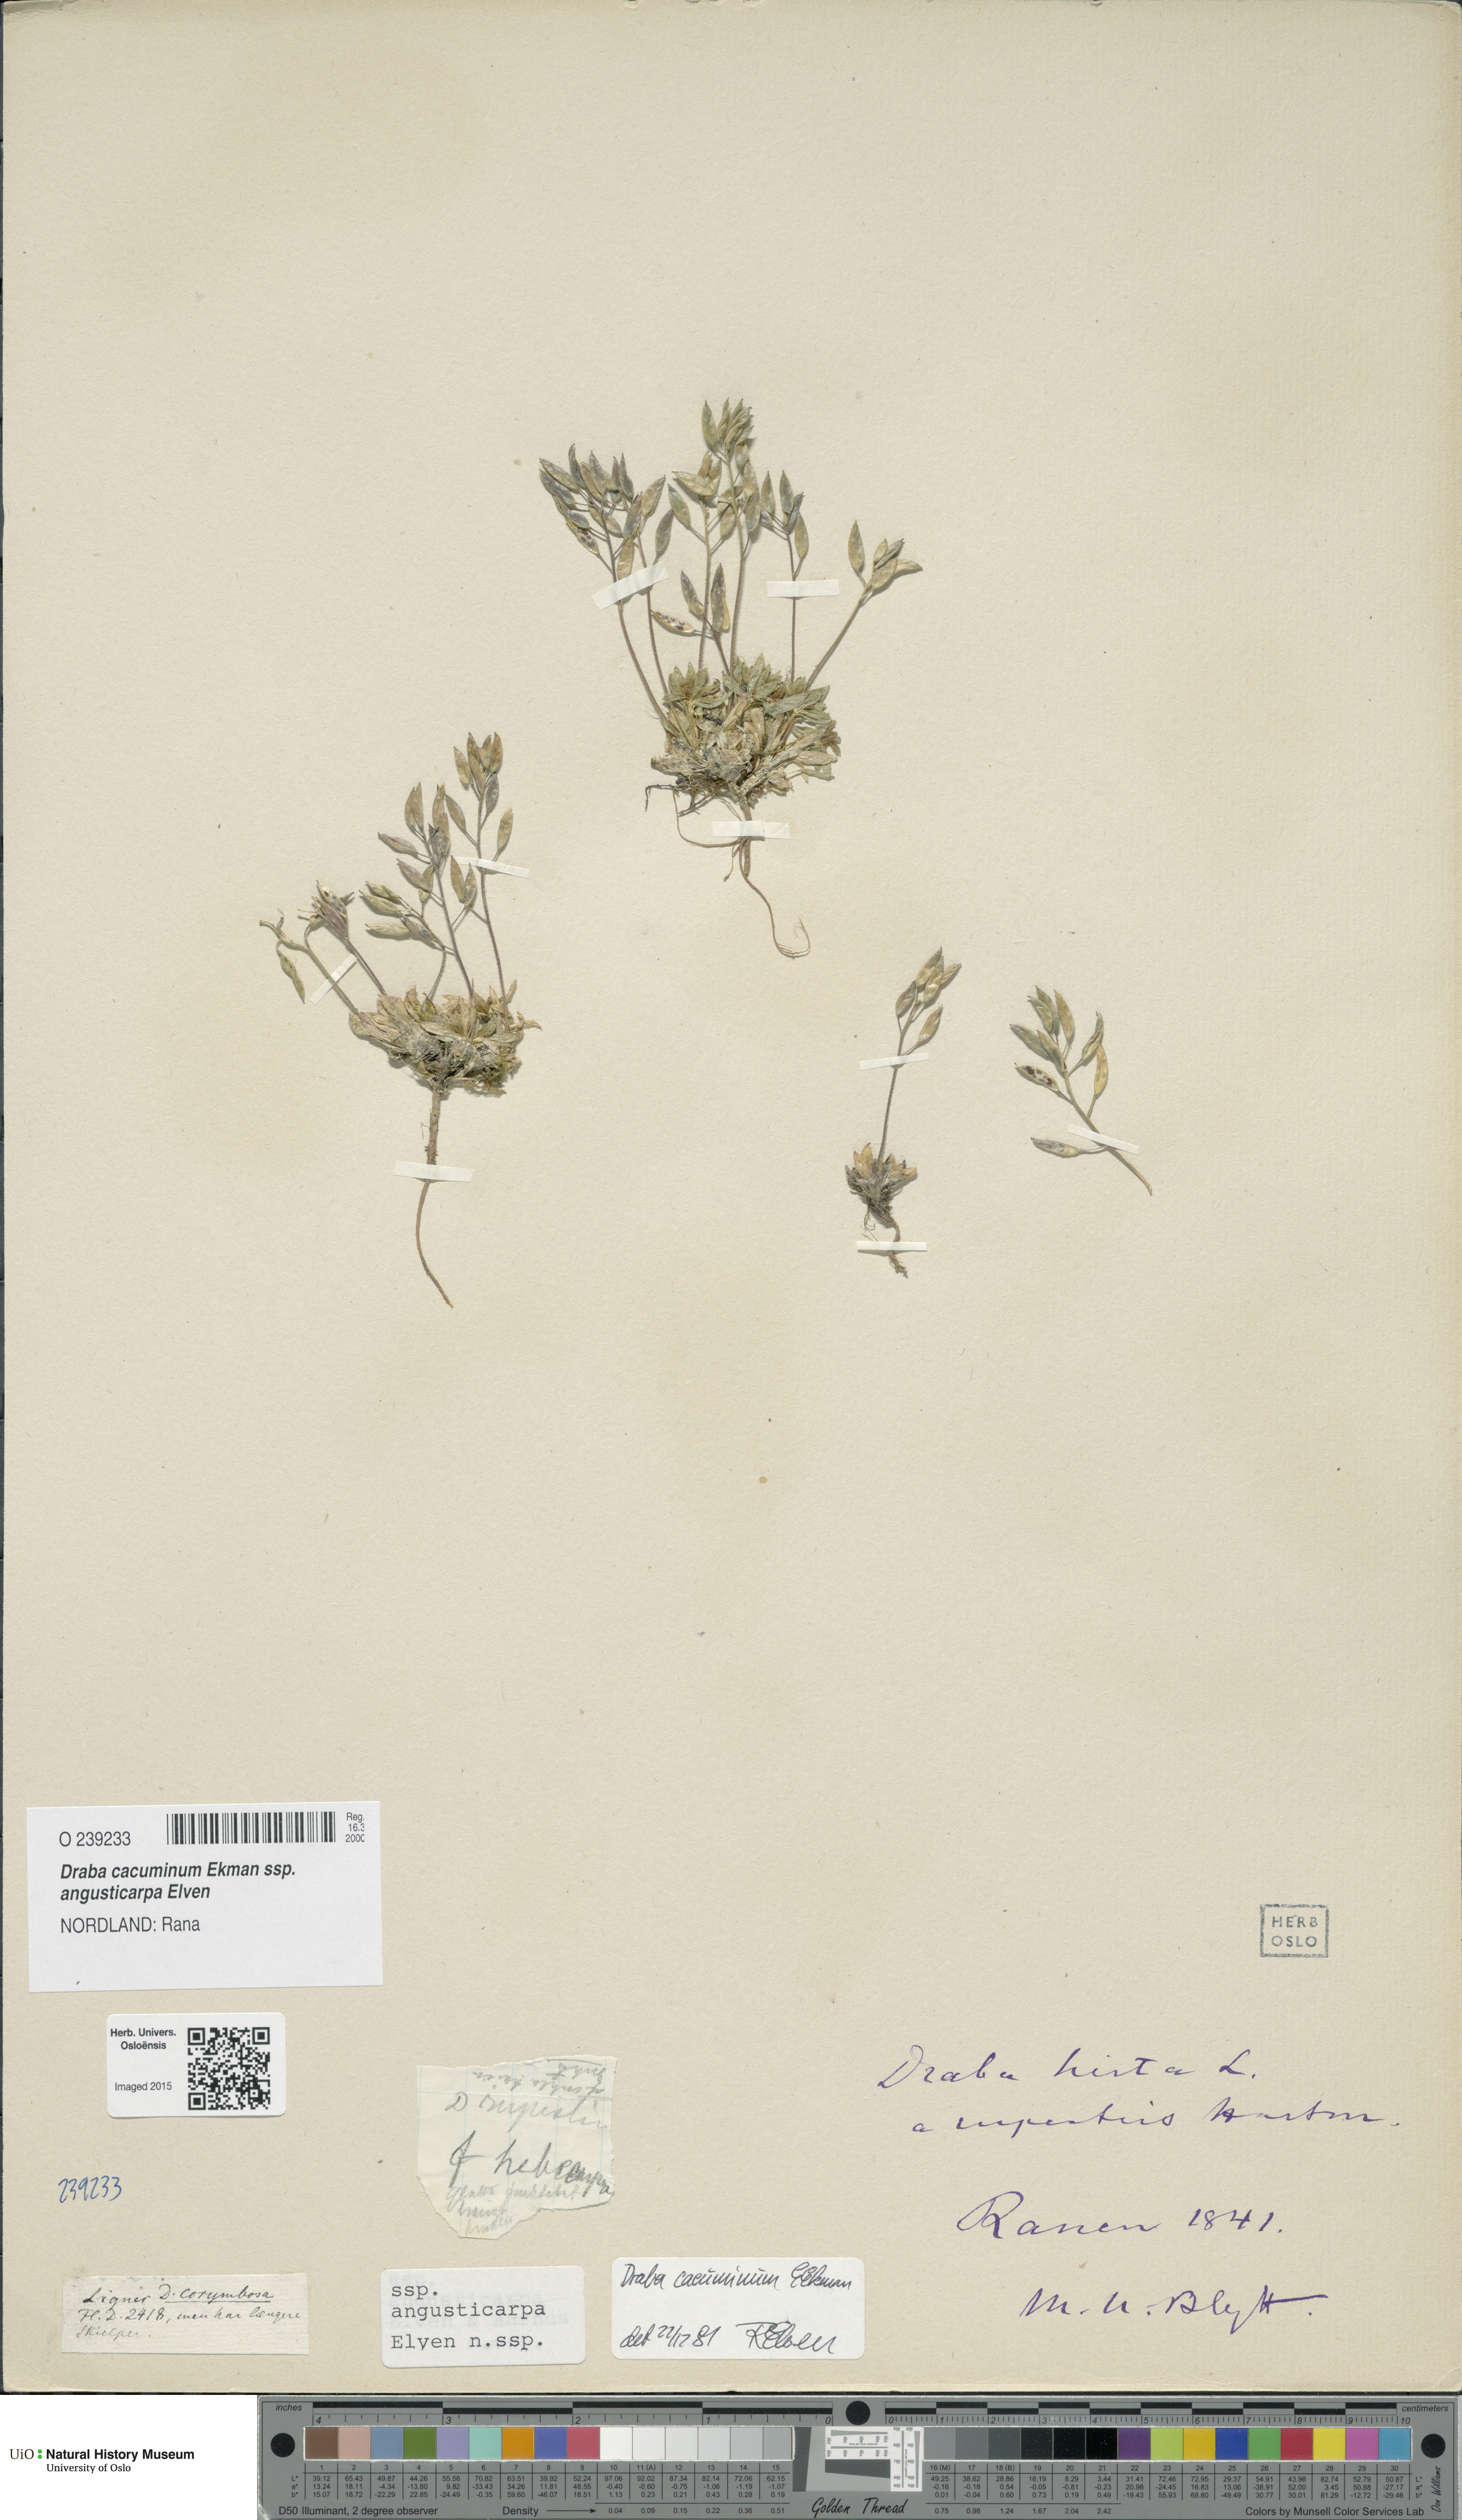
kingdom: Plantae
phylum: Tracheophyta
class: Magnoliopsida
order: Brassicales
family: Brassicaceae
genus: Draba
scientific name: Draba cacuminum
